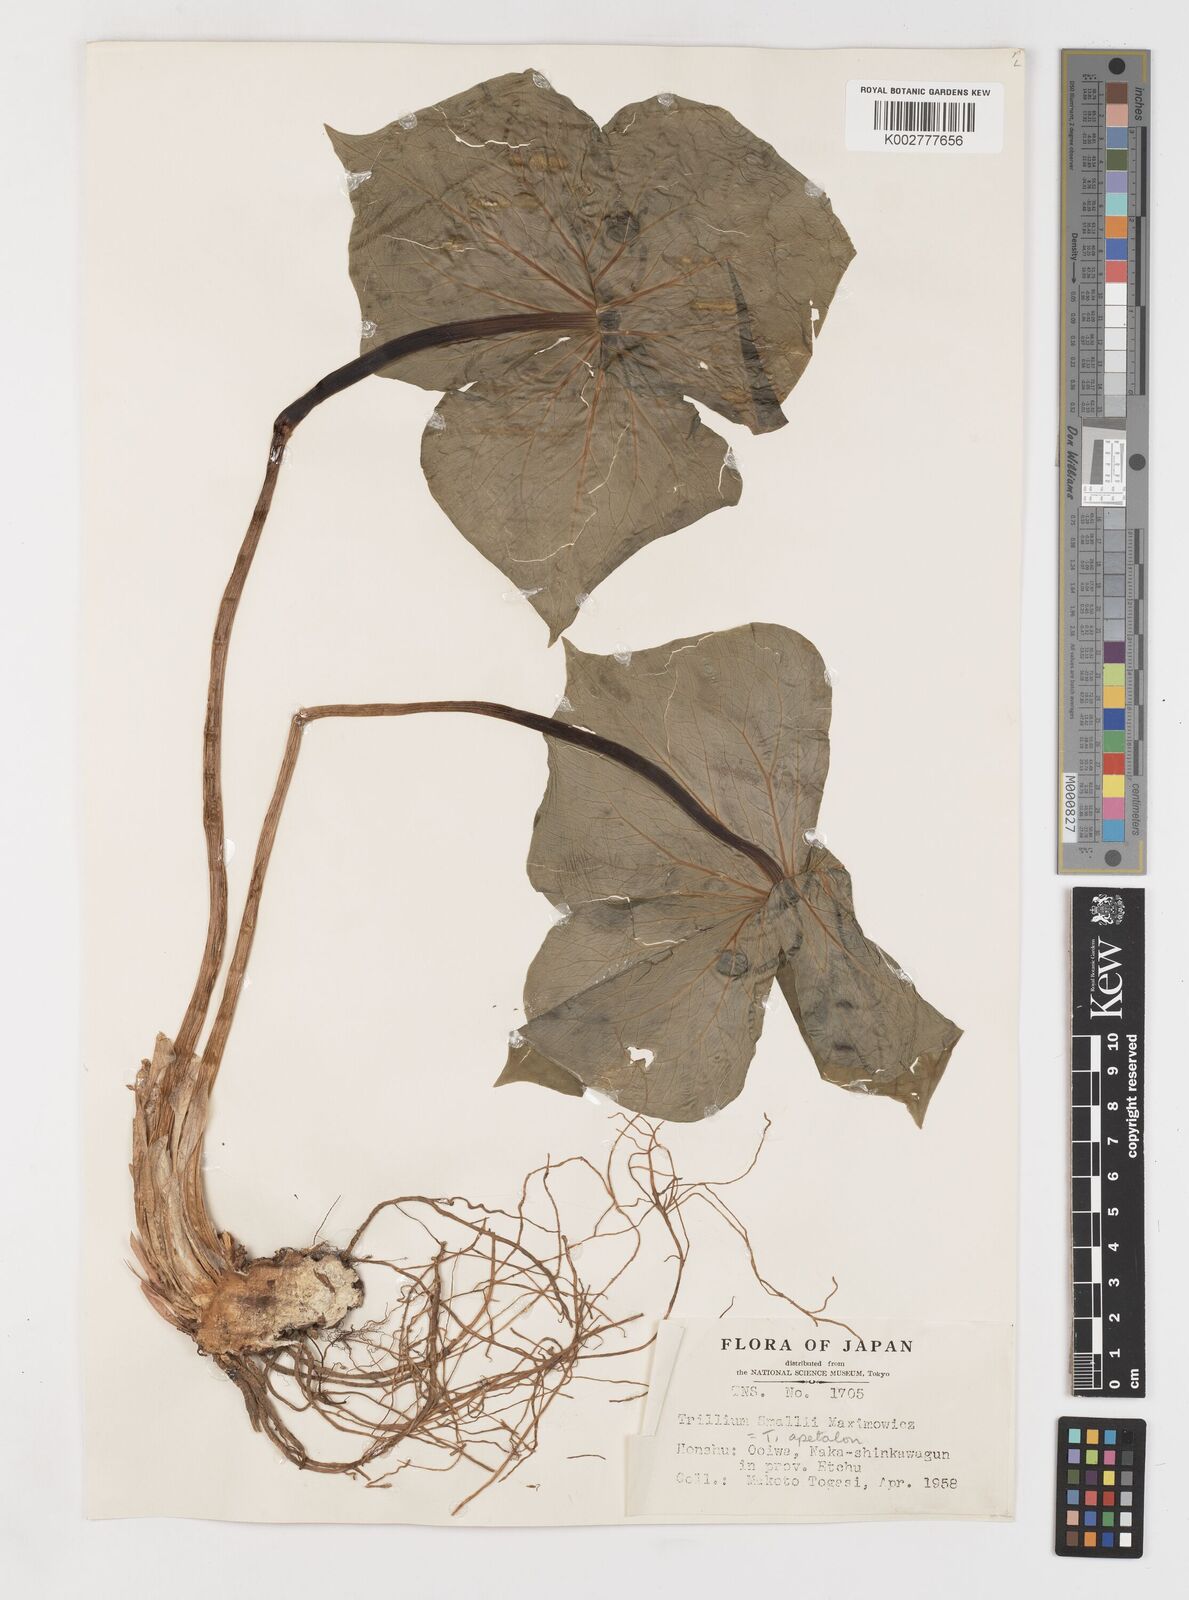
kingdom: Plantae
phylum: Tracheophyta
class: Liliopsida
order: Liliales
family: Melanthiaceae
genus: Trillium
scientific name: Trillium smallii
